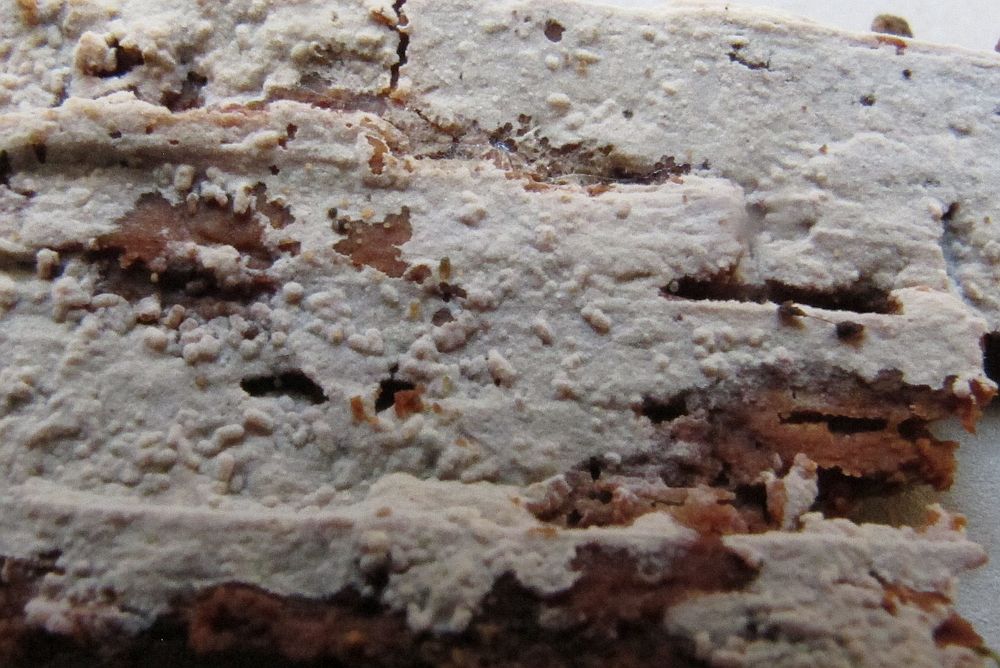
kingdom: Fungi
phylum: Basidiomycota
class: Agaricomycetes
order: Hymenochaetales
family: Hyphodontiaceae
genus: Hyphodontia
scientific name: Hyphodontia pallidula
